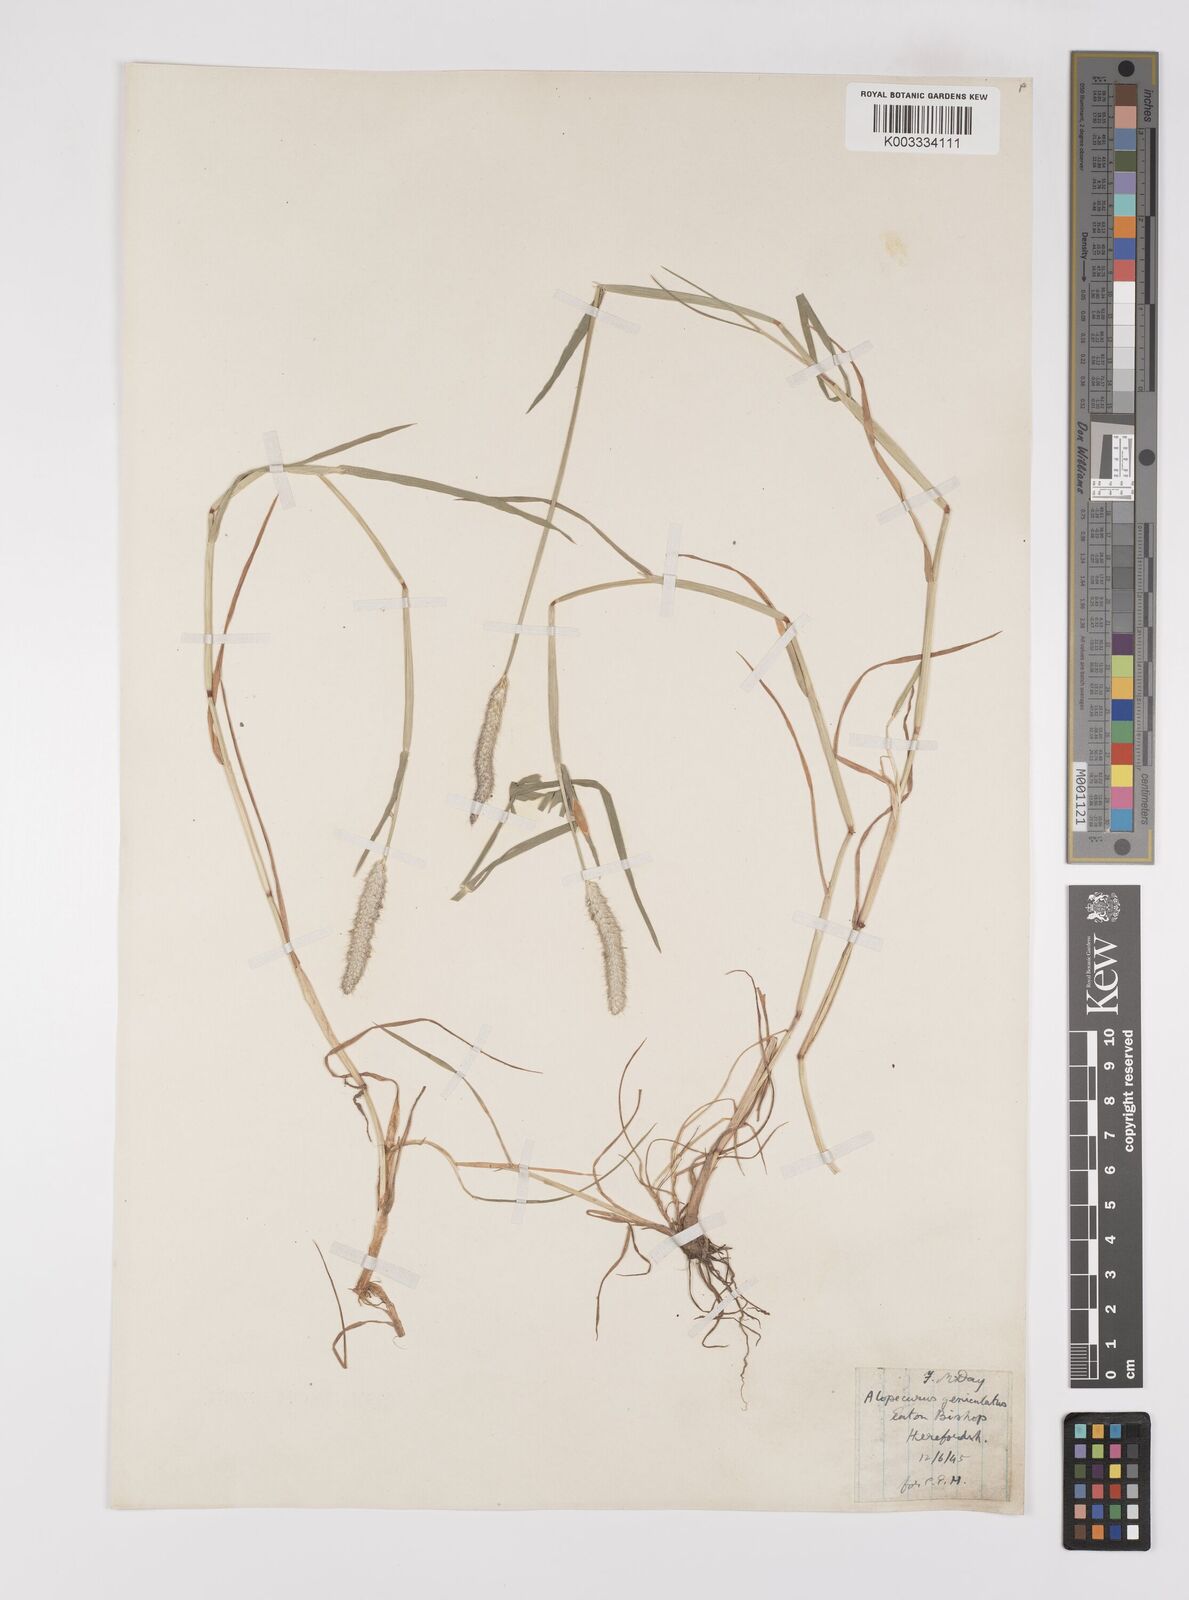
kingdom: Plantae
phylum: Tracheophyta
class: Liliopsida
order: Poales
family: Poaceae
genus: Alopecurus
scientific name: Alopecurus geniculatus
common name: Water foxtail
